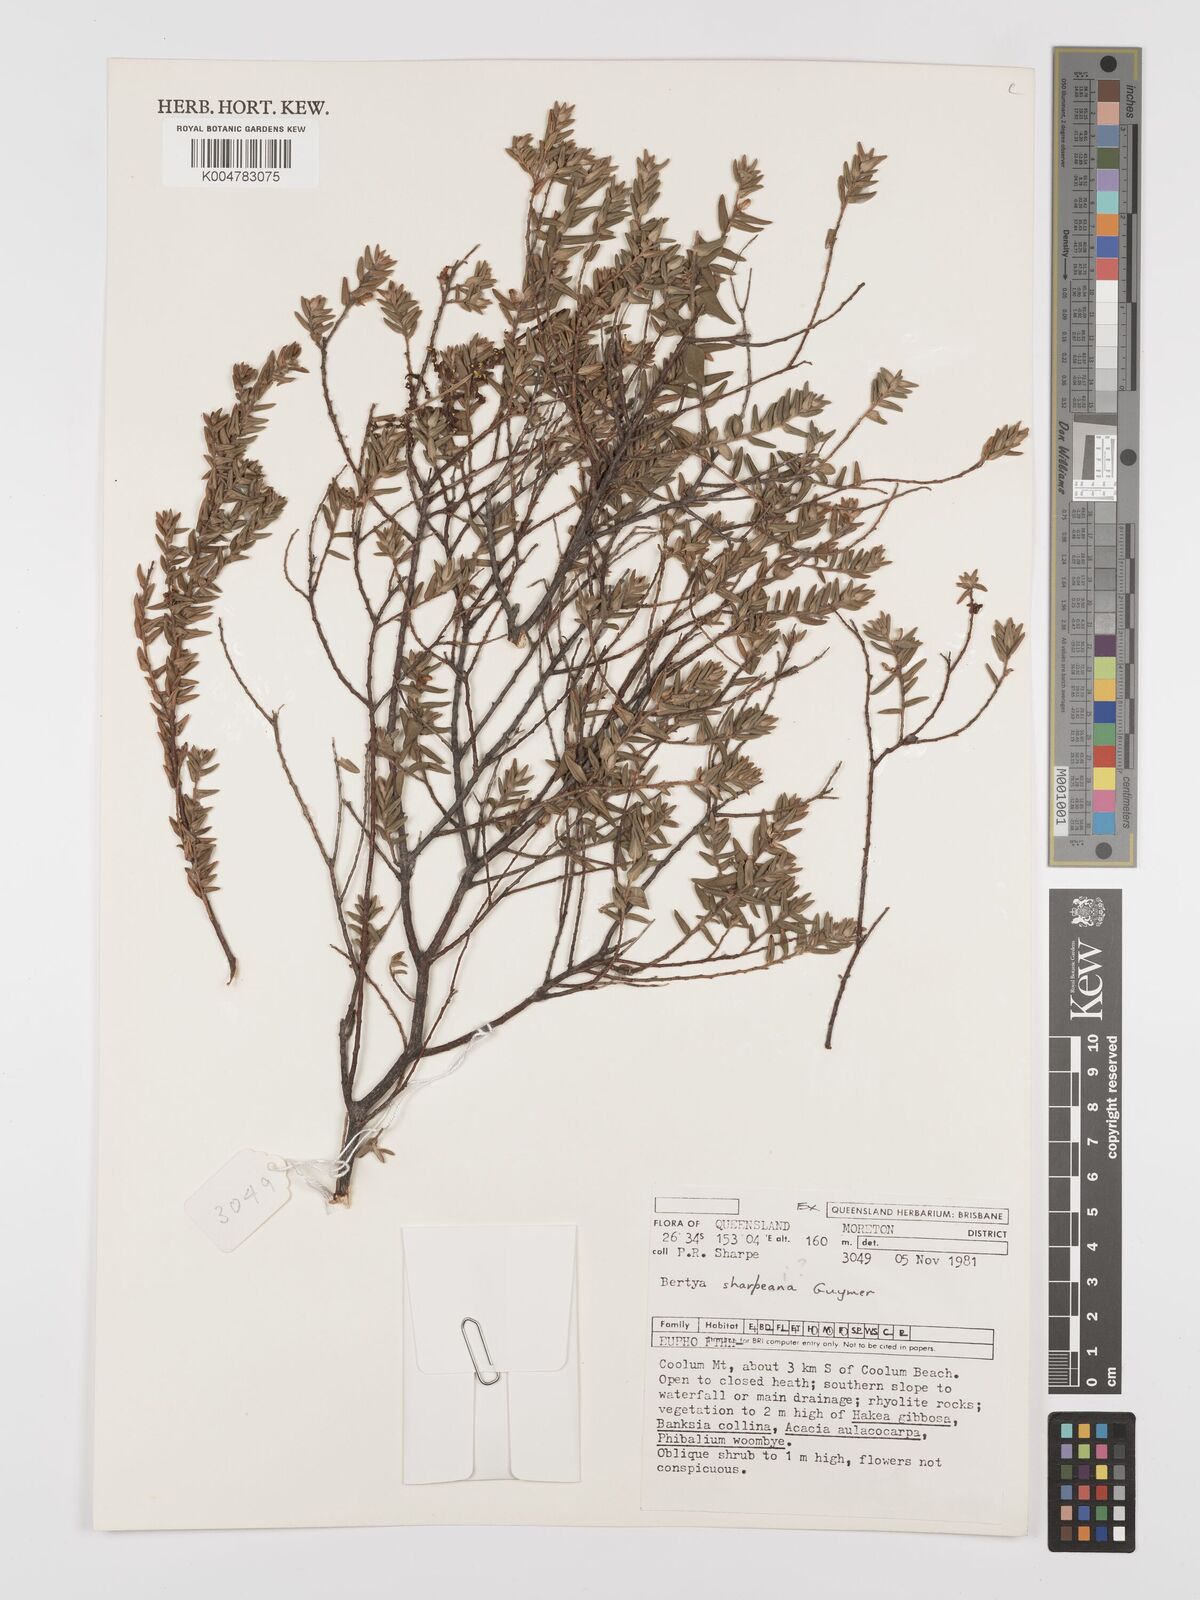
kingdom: Plantae
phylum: Tracheophyta
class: Magnoliopsida
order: Malpighiales
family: Euphorbiaceae
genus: Bertya
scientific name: Bertya sharpeana
